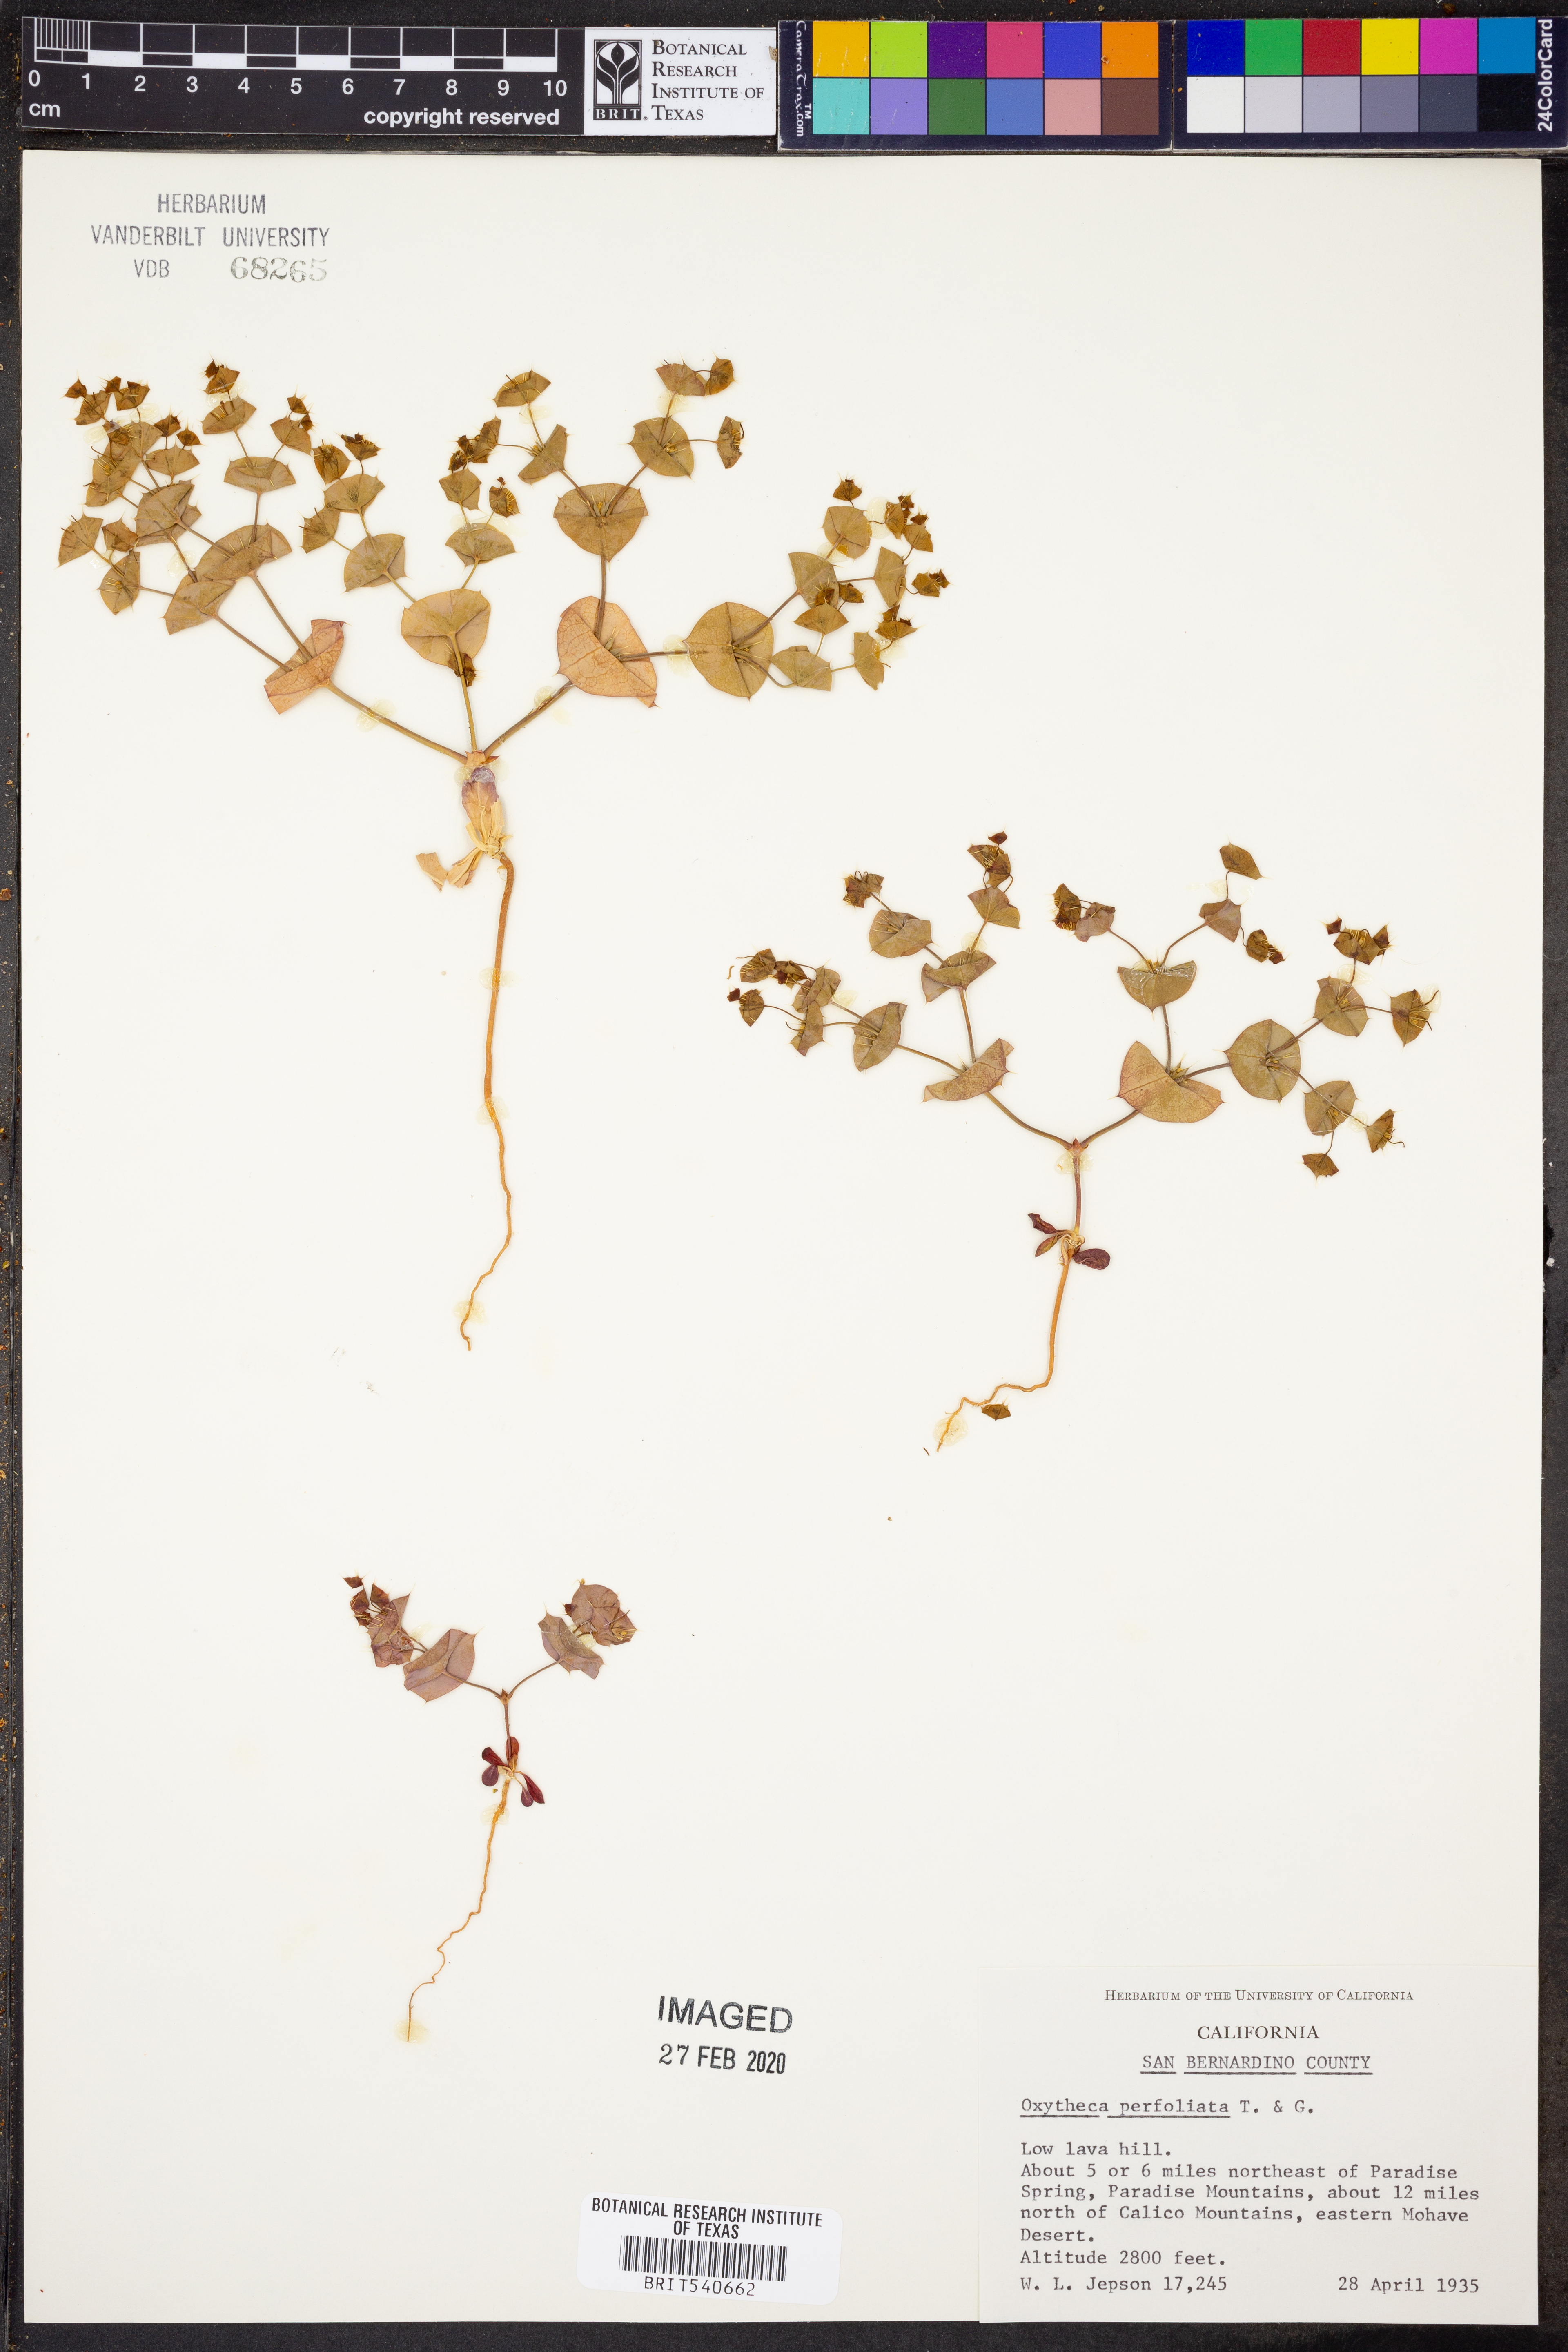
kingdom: Plantae
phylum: Tracheophyta
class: Magnoliopsida
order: Caryophyllales
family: Polygonaceae
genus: Oxytheca
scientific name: Oxytheca perfoliata
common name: Round-leaf puncturebract
